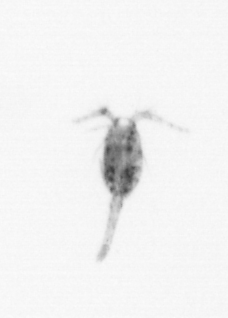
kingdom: Animalia
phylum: Arthropoda
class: Copepoda
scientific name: Copepoda
